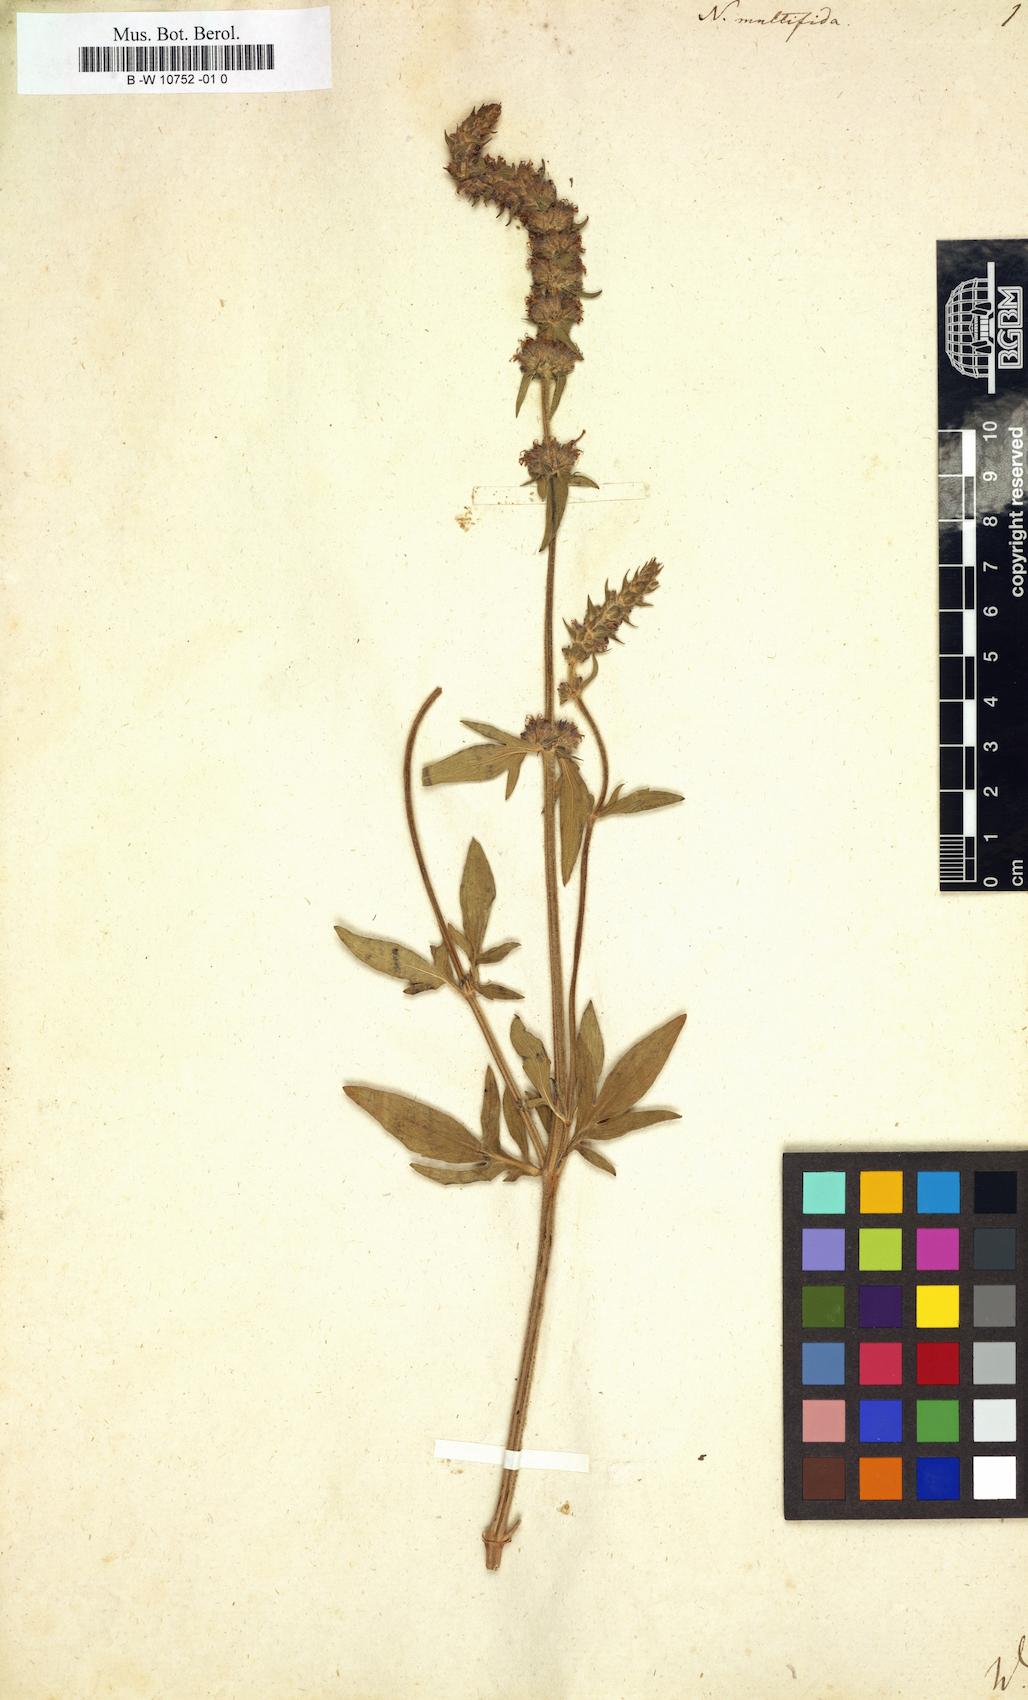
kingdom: Plantae
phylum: Tracheophyta
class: Magnoliopsida
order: Lamiales
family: Lamiaceae
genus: Nepeta
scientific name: Nepeta multifida
